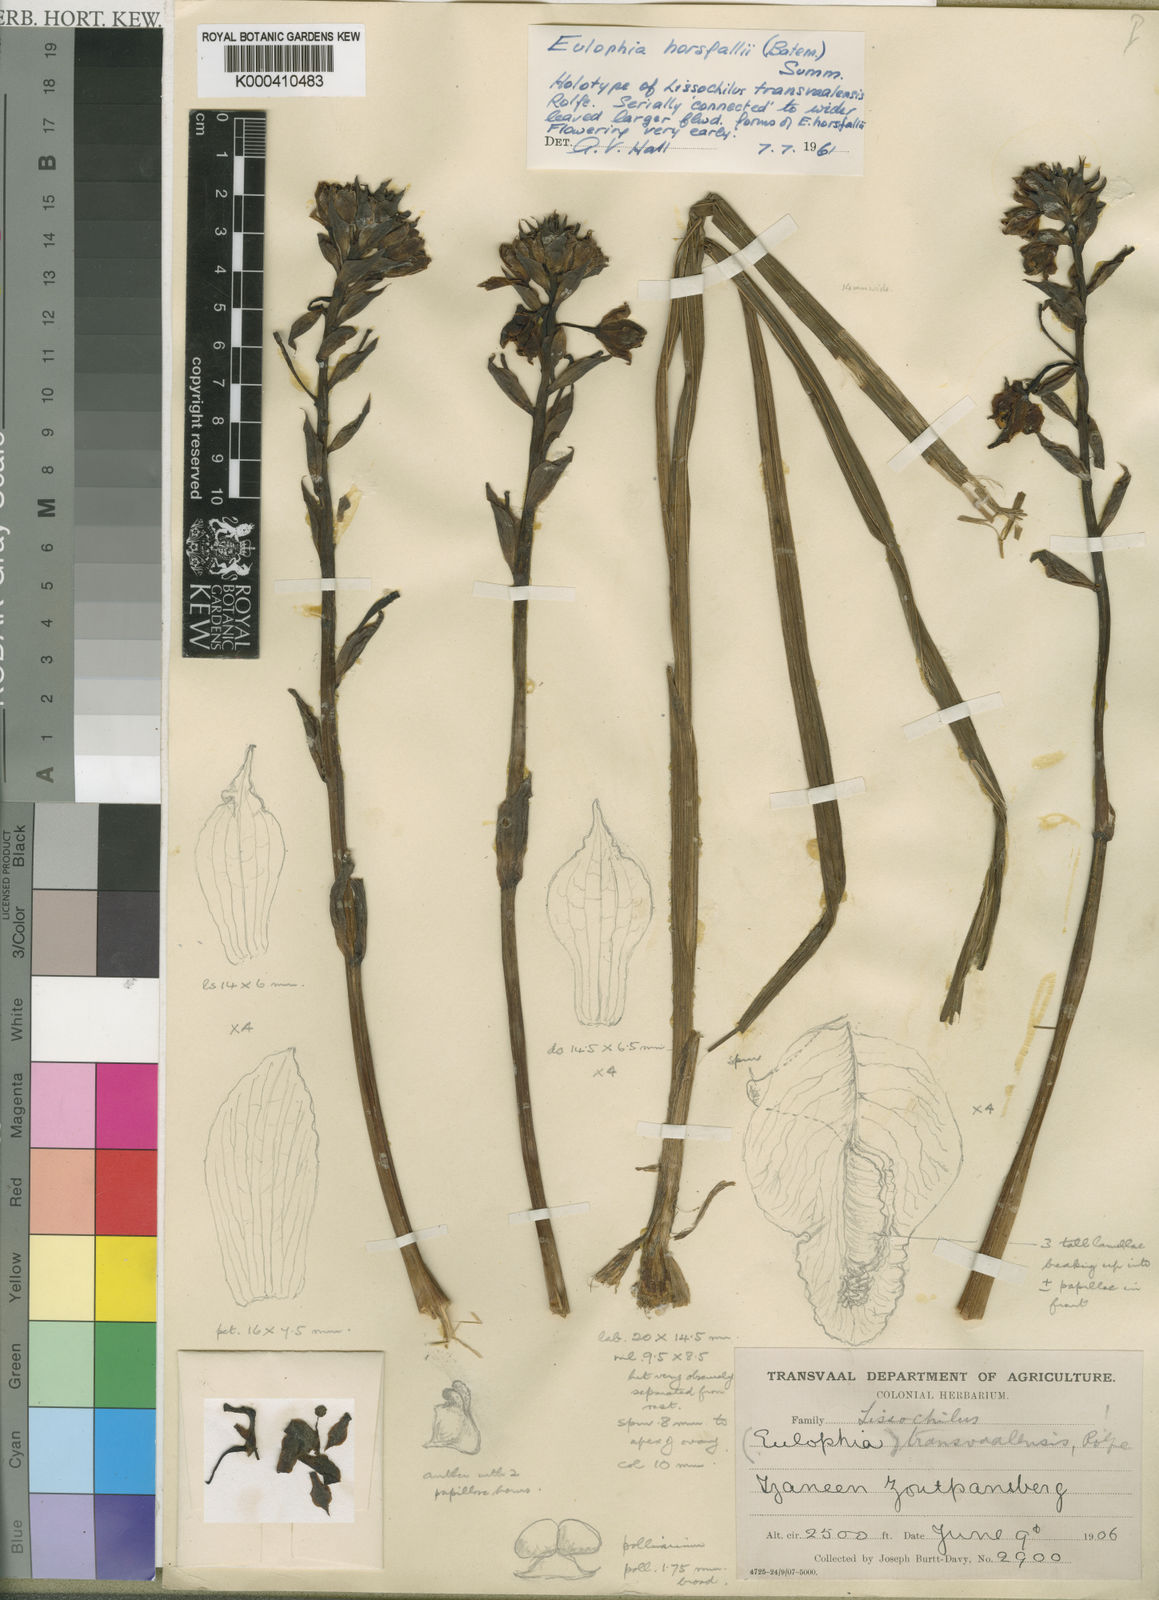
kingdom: Plantae
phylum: Tracheophyta
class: Liliopsida
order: Asparagales
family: Orchidaceae
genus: Eulophia
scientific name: Eulophia horsfallii
